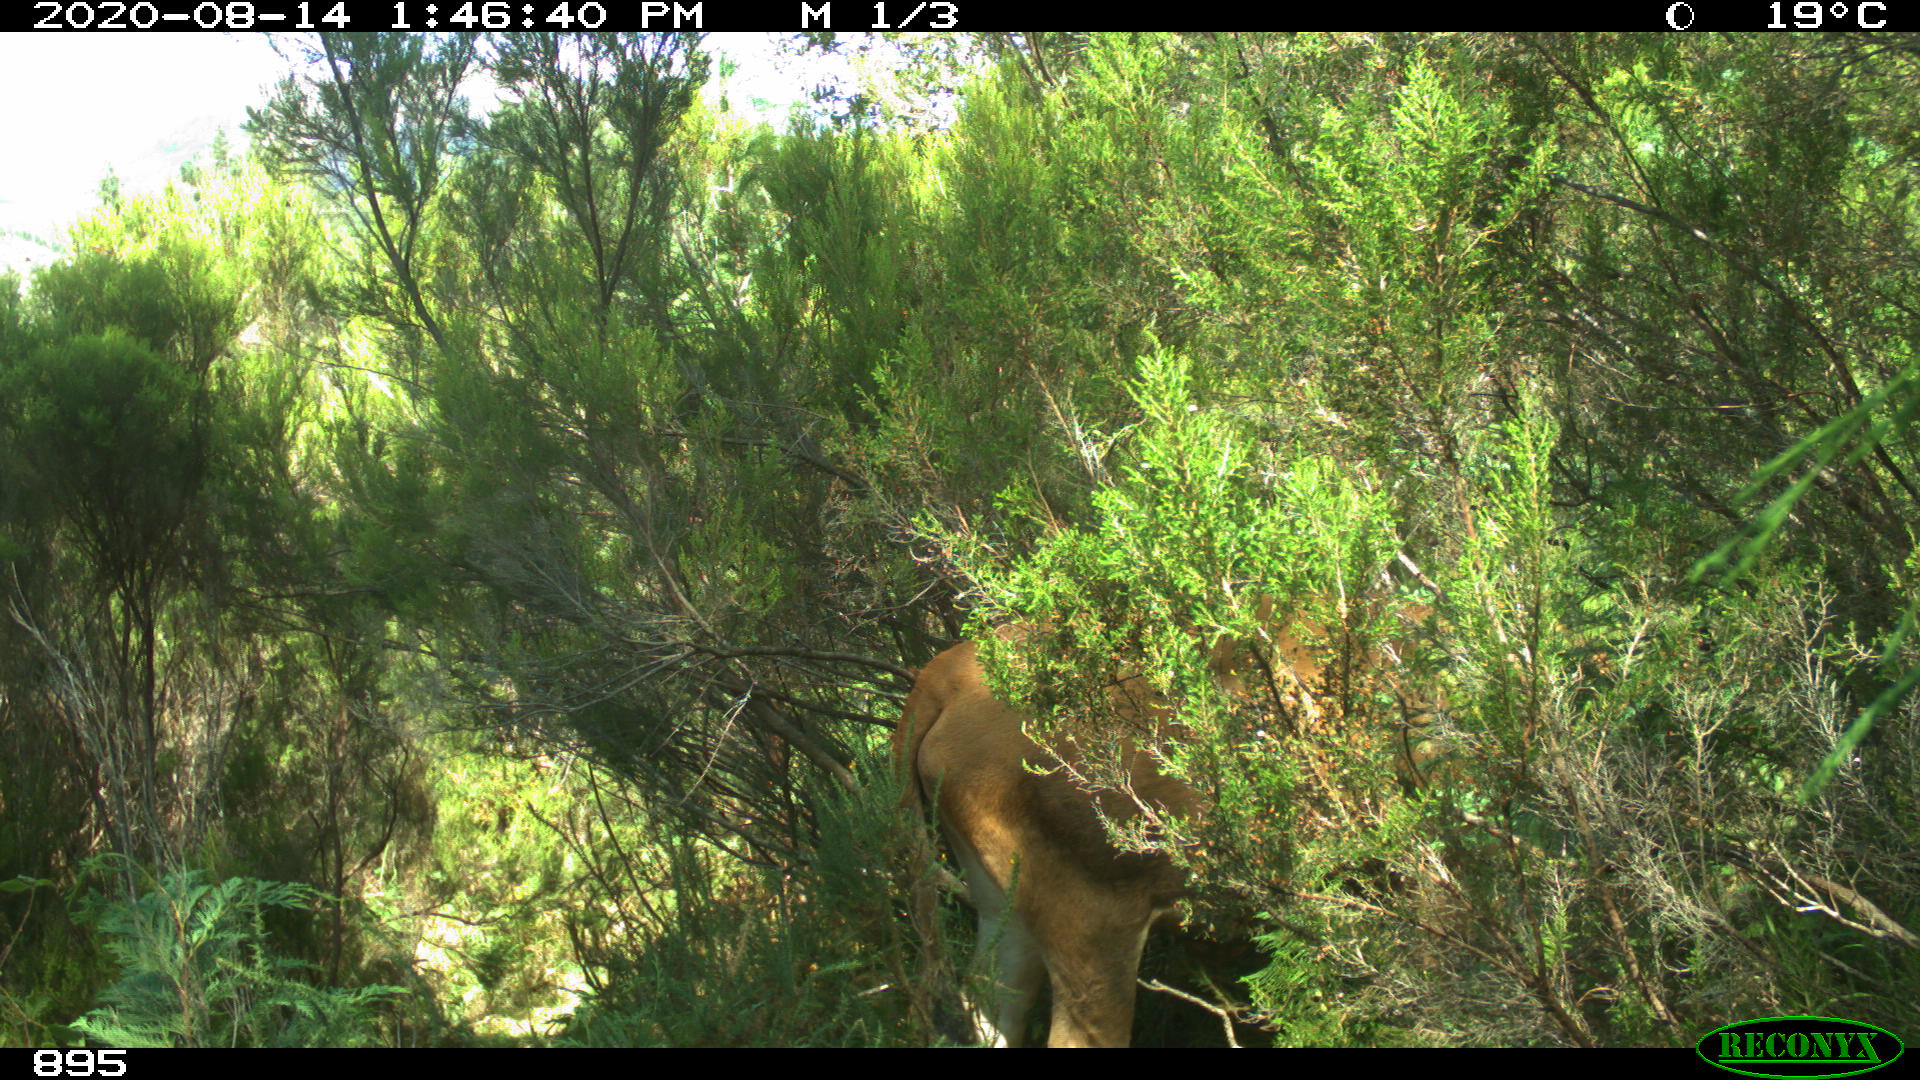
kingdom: Animalia
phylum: Chordata
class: Mammalia
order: Artiodactyla
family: Bovidae
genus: Bos
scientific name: Bos taurus
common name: Domesticated cattle
